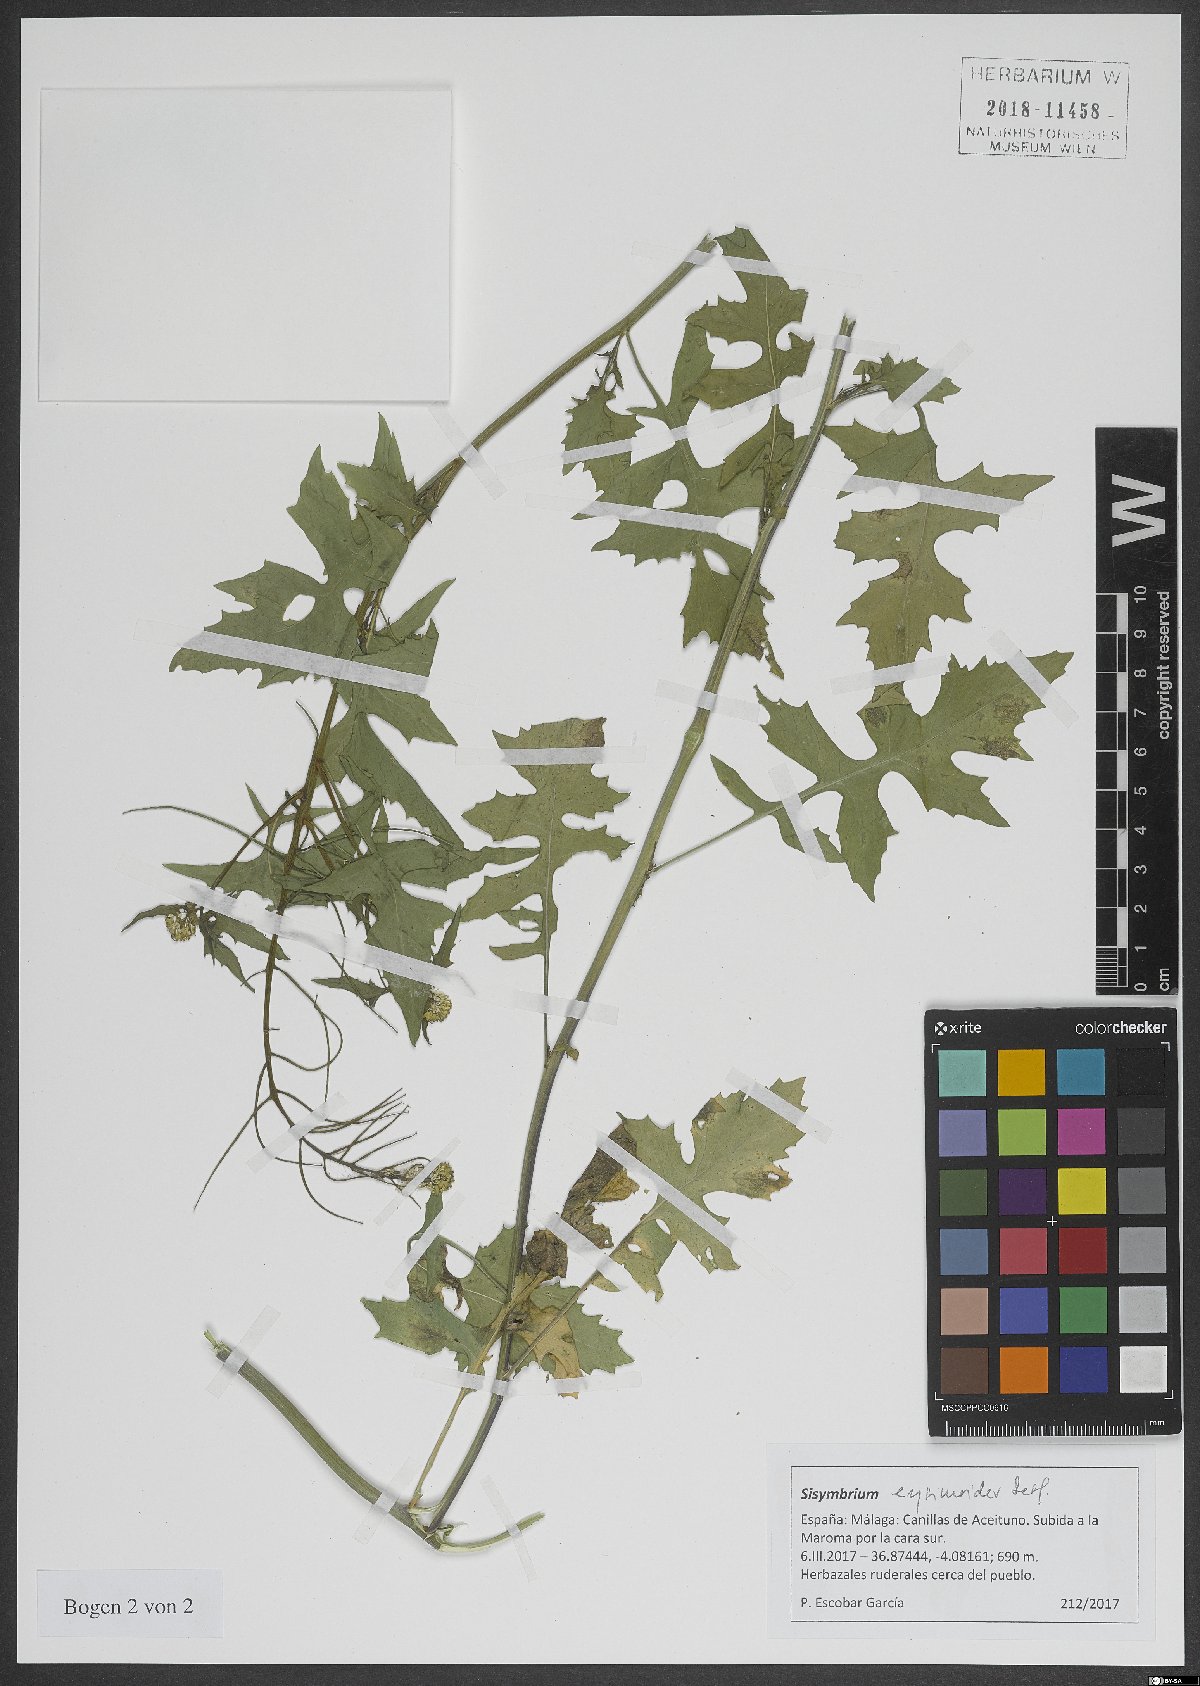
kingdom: Plantae
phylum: Tracheophyta
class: Magnoliopsida
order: Brassicales
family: Brassicaceae
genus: Sisymbrium
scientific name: Sisymbrium erysimoides
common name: French rocket
